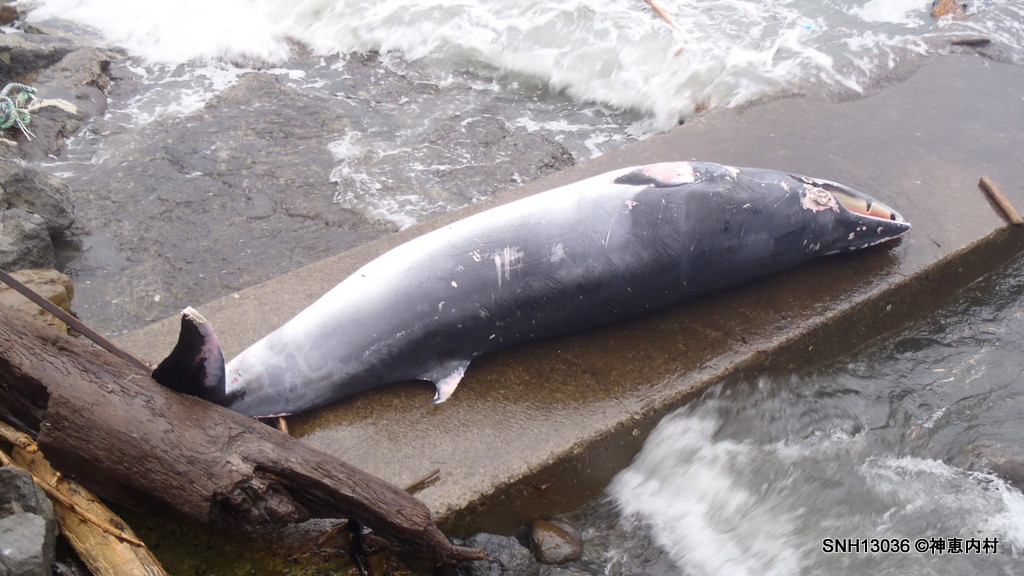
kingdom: Animalia
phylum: Chordata
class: Mammalia
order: Cetacea
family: Balaenopteridae
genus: Balaenoptera
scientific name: Balaenoptera acutorostrata
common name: Minke whale
